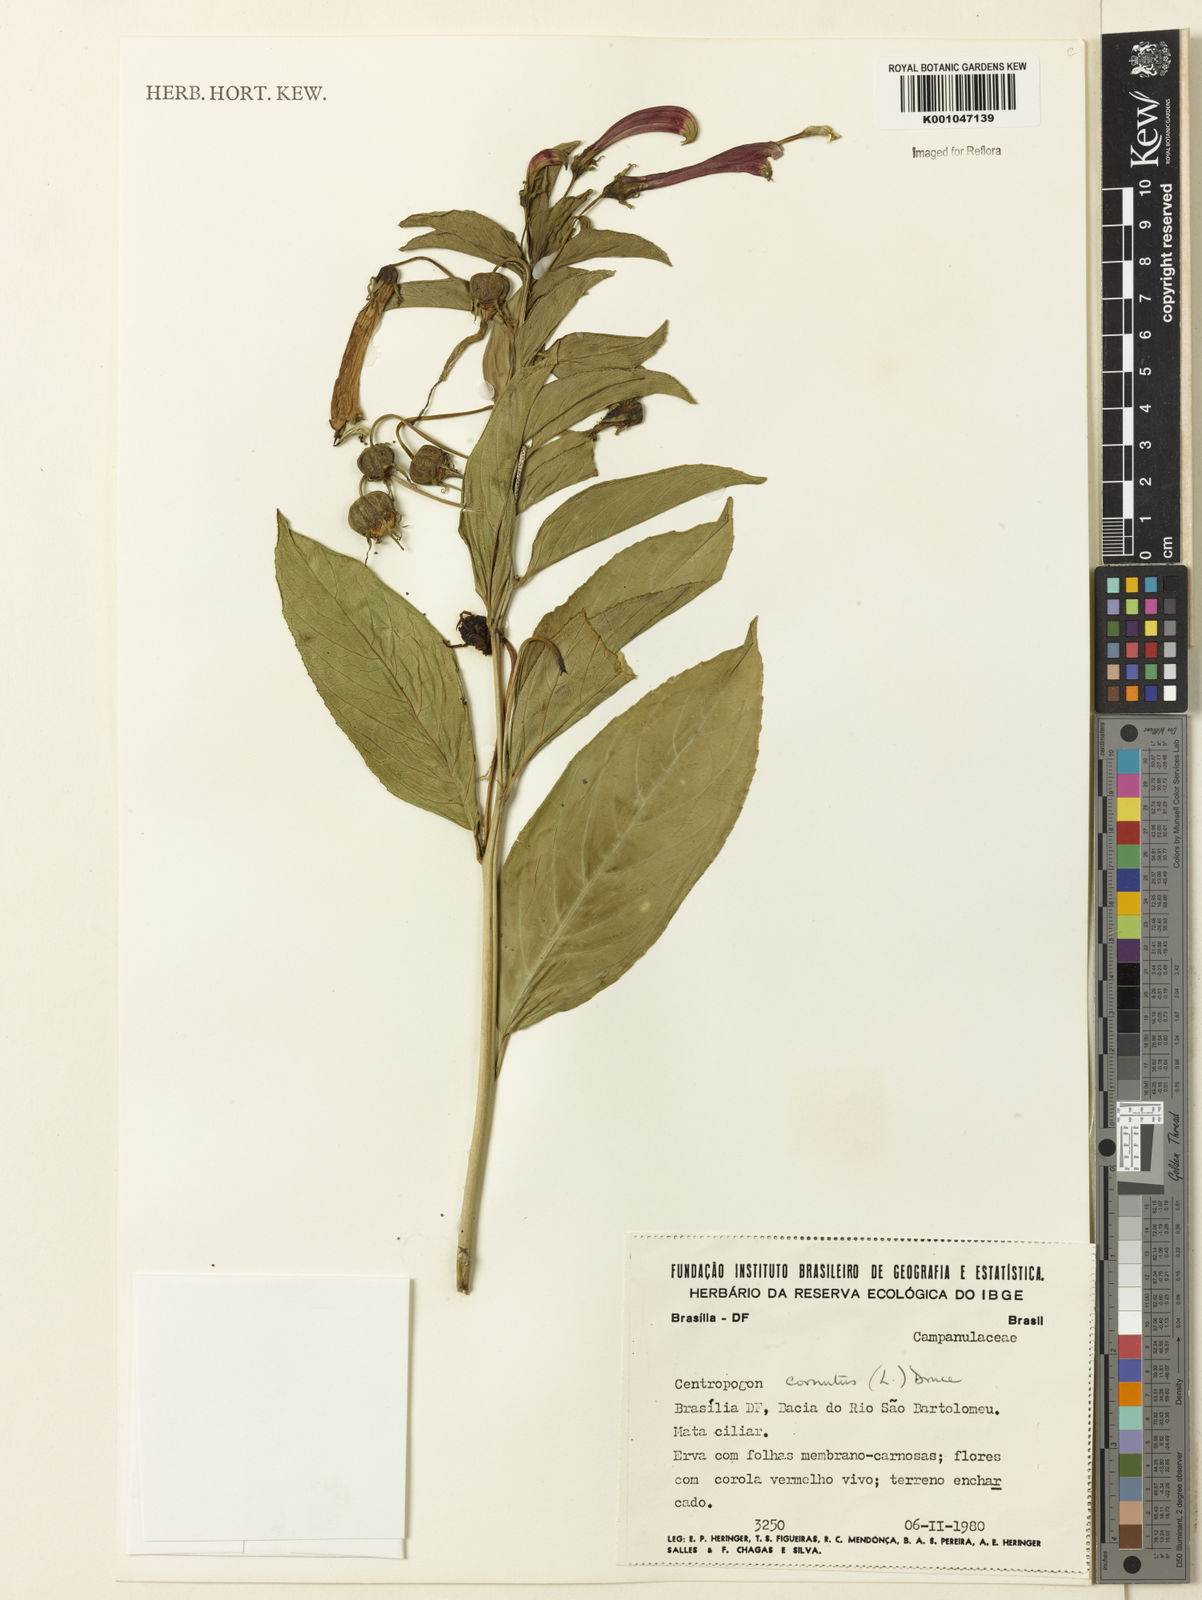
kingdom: Plantae
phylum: Tracheophyta
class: Magnoliopsida
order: Asterales
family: Campanulaceae
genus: Centropogon
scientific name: Centropogon cornutus
